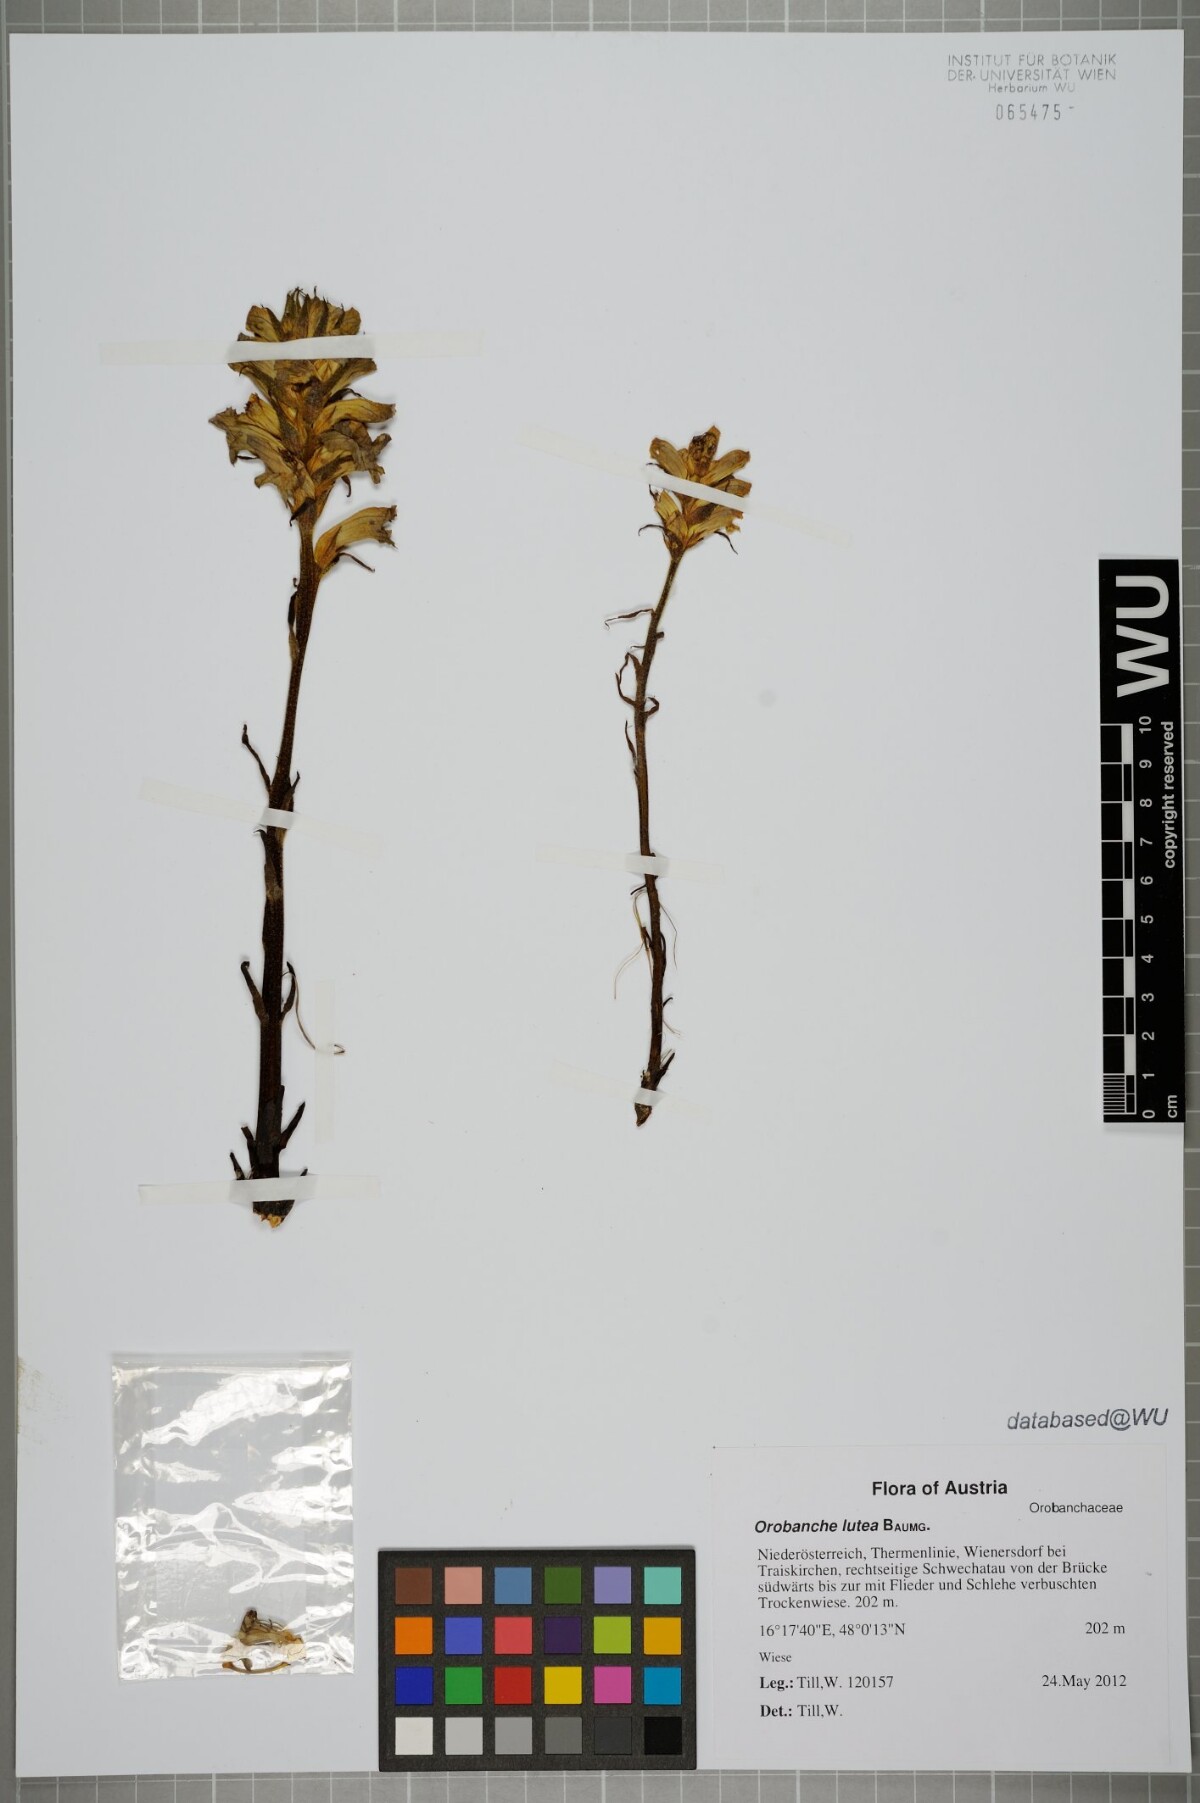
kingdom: Plantae
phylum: Tracheophyta
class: Magnoliopsida
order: Lamiales
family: Orobanchaceae
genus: Orobanche
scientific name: Orobanche lutea
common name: Yellow broomrape
